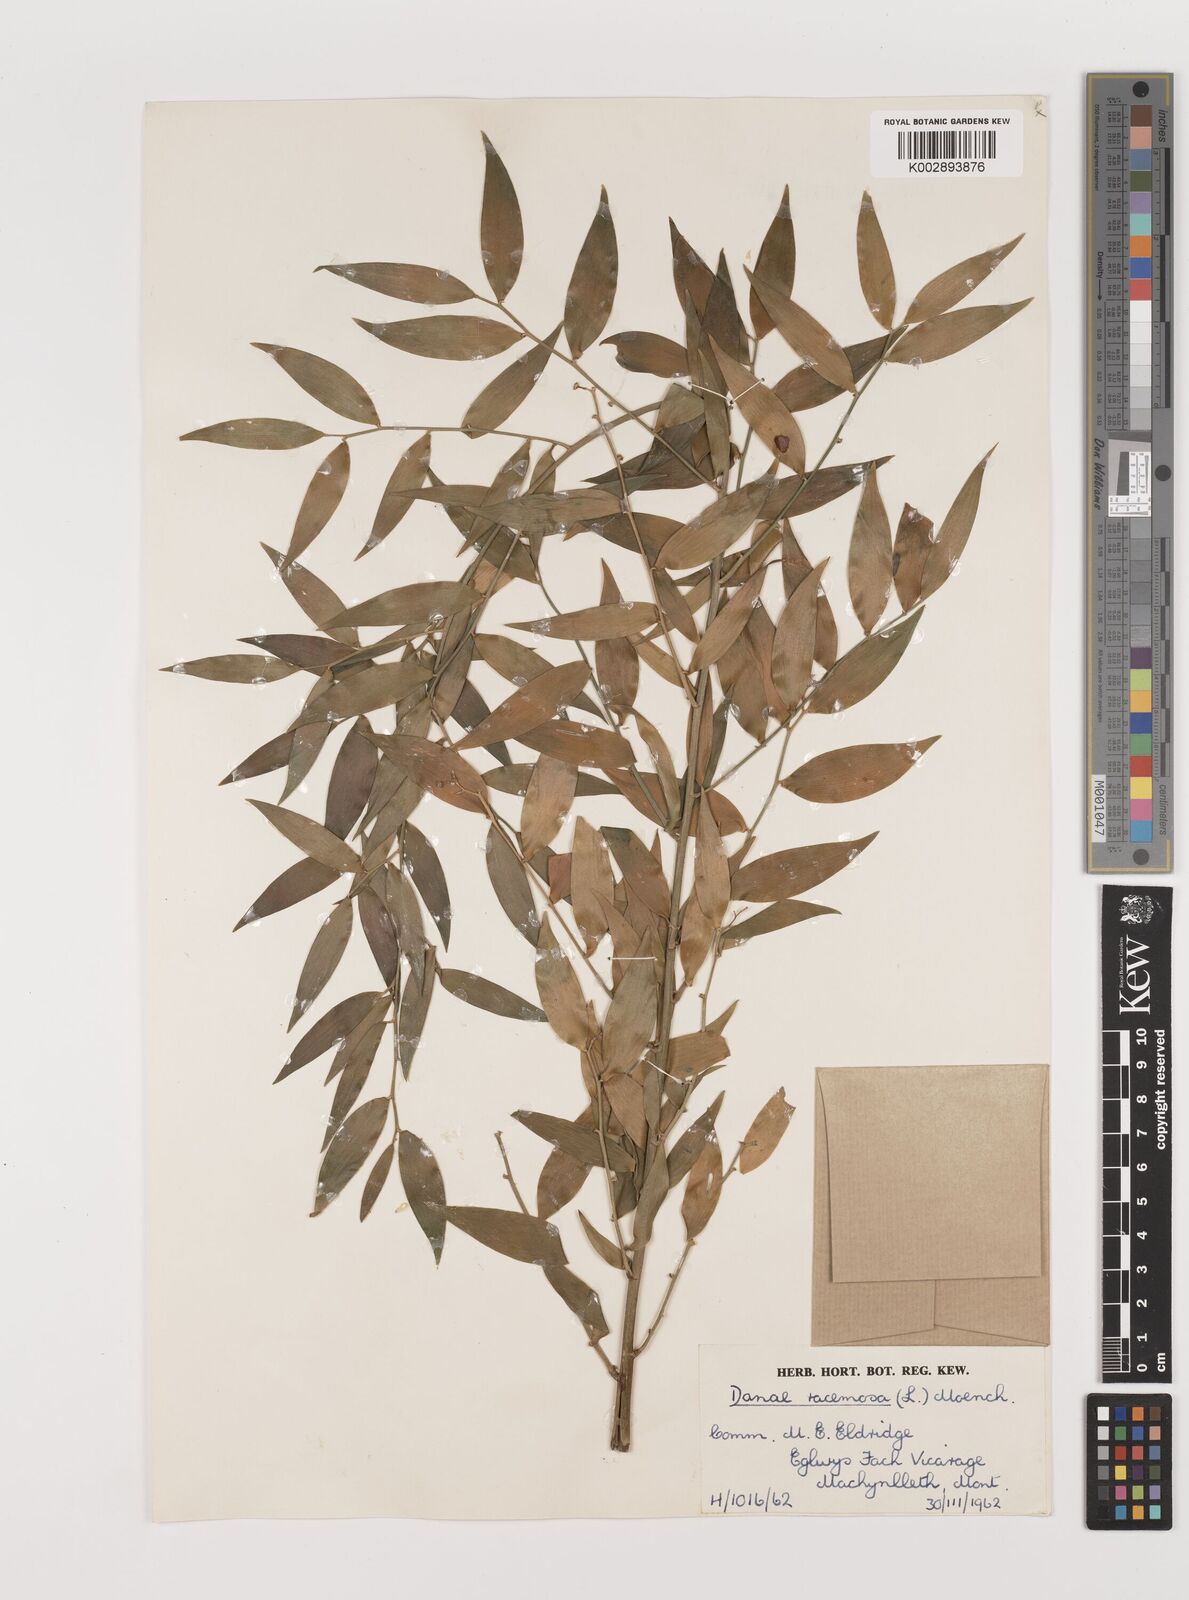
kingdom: Plantae
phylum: Tracheophyta
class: Liliopsida
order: Asparagales
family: Asparagaceae
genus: Danae
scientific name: Danae
